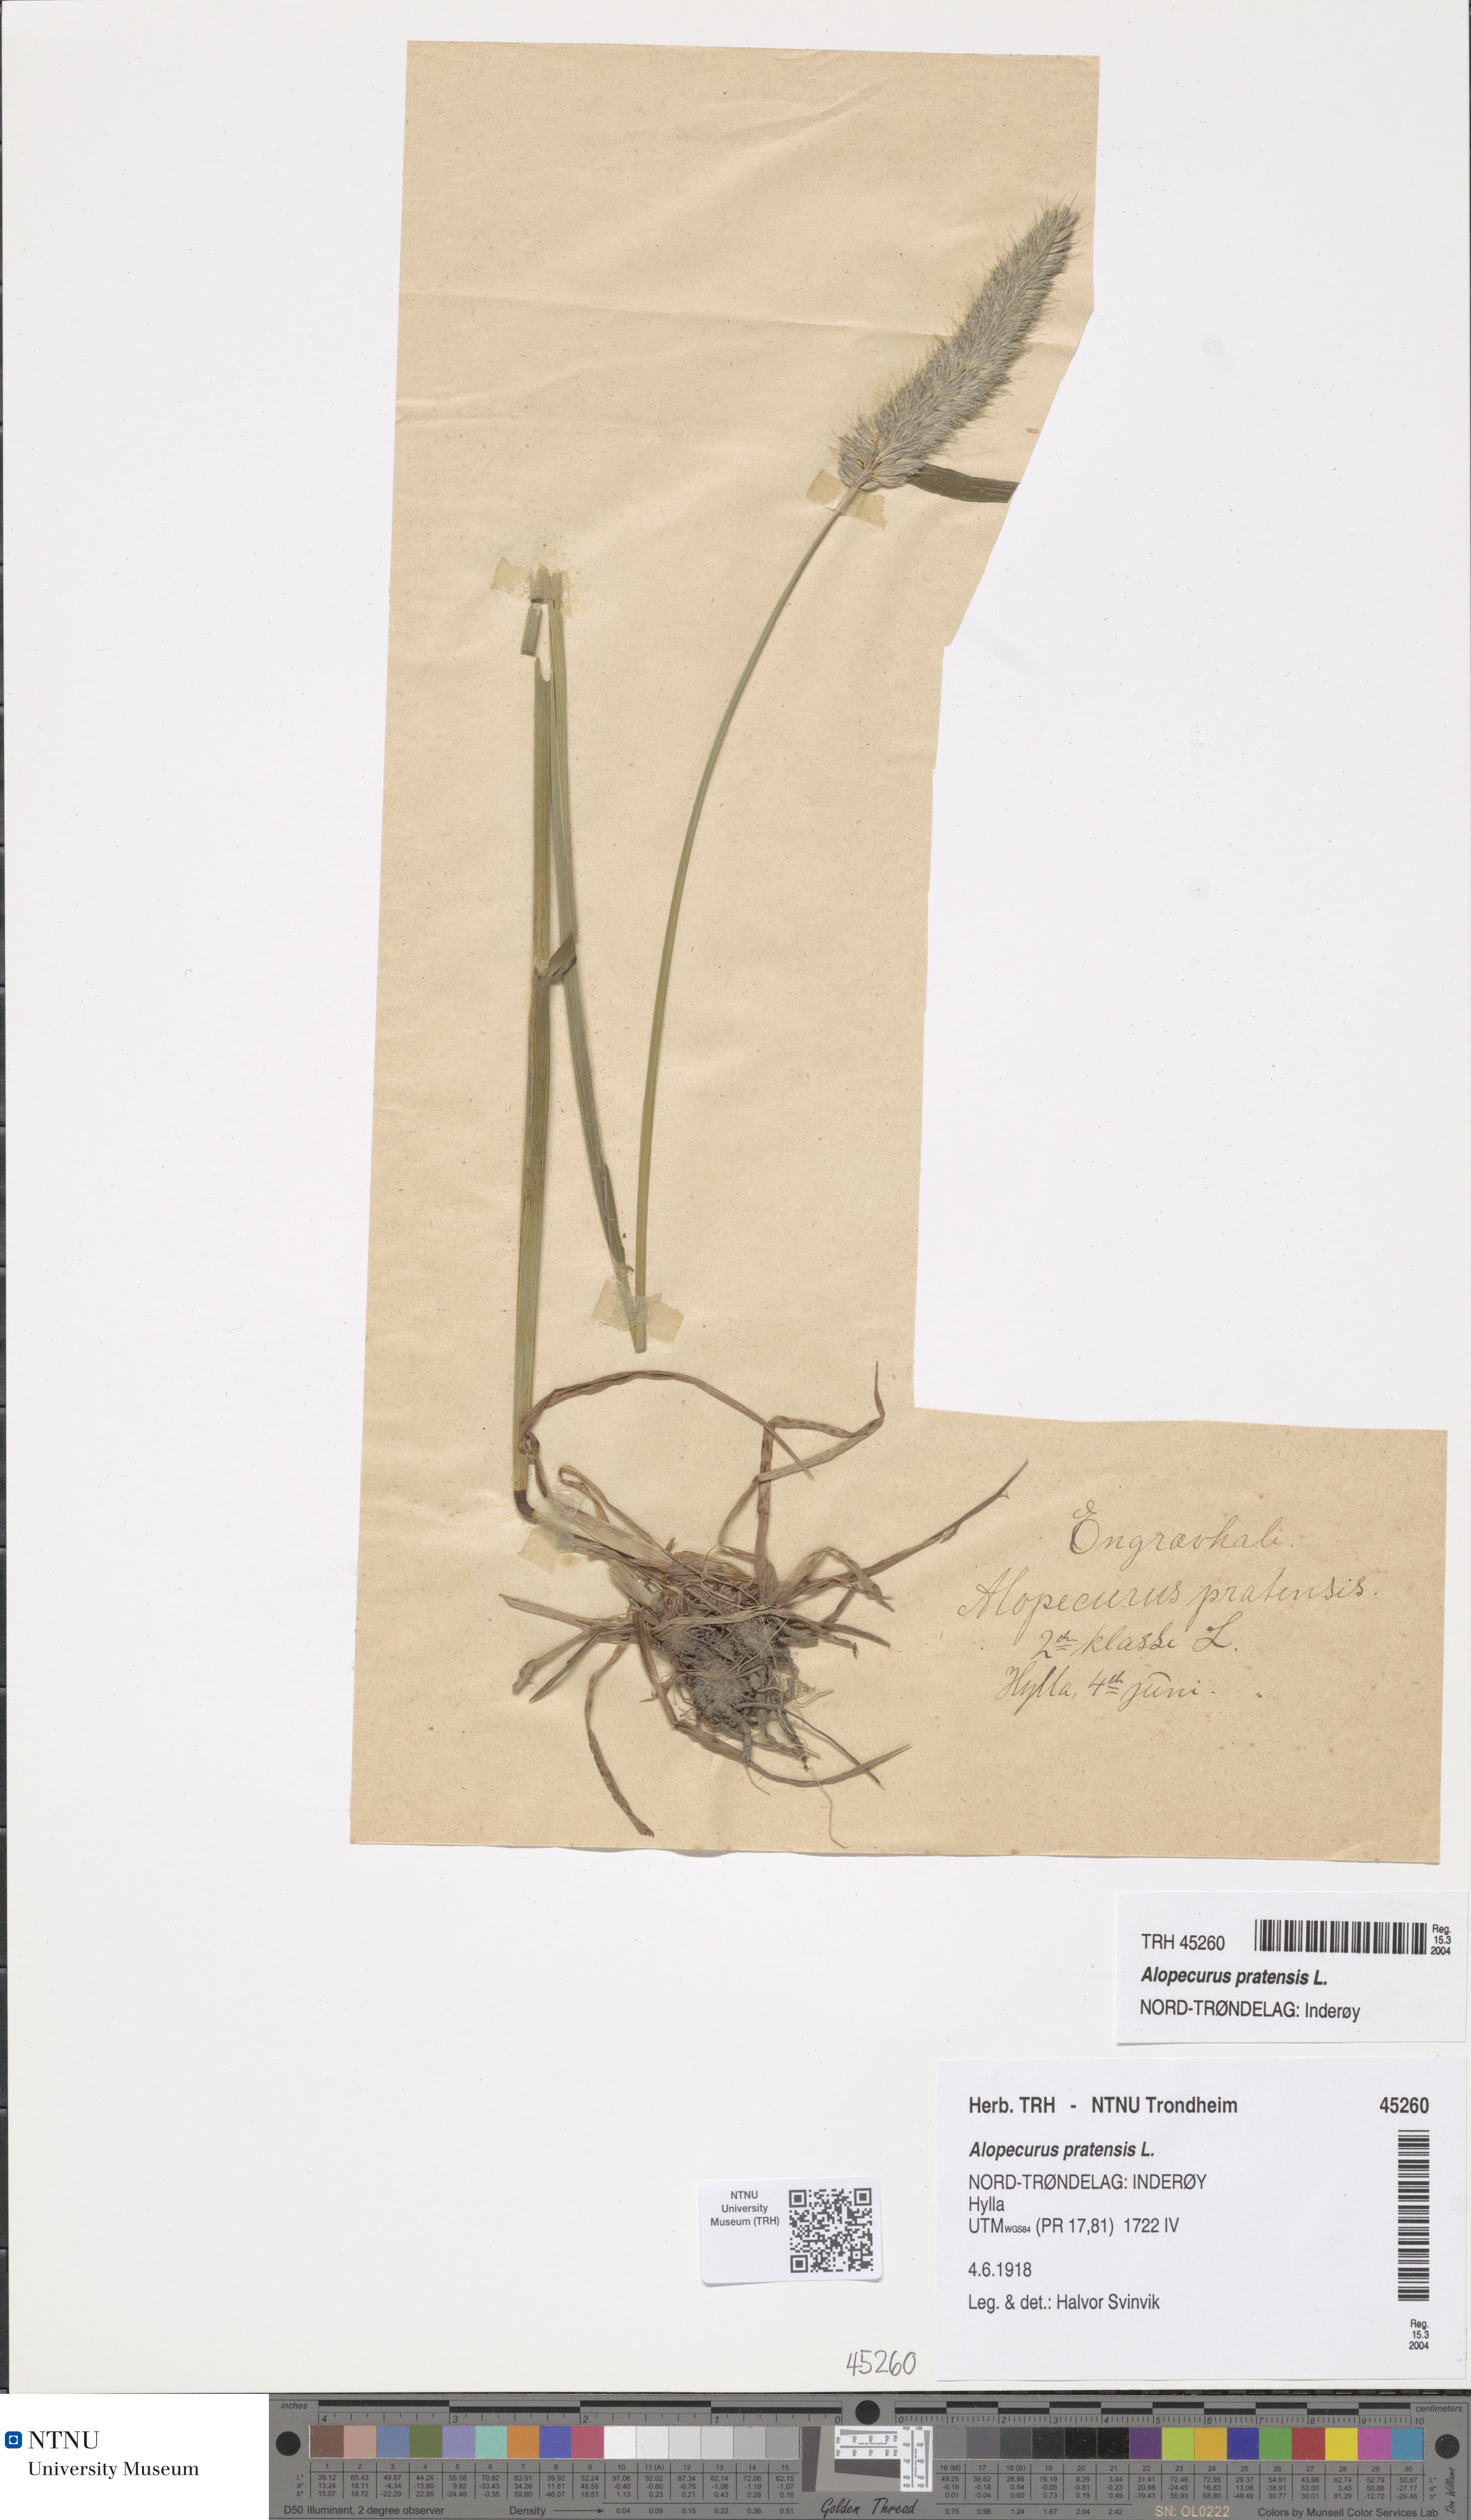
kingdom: Plantae
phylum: Tracheophyta
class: Liliopsida
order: Poales
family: Poaceae
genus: Alopecurus
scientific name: Alopecurus pratensis
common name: Meadow foxtail
